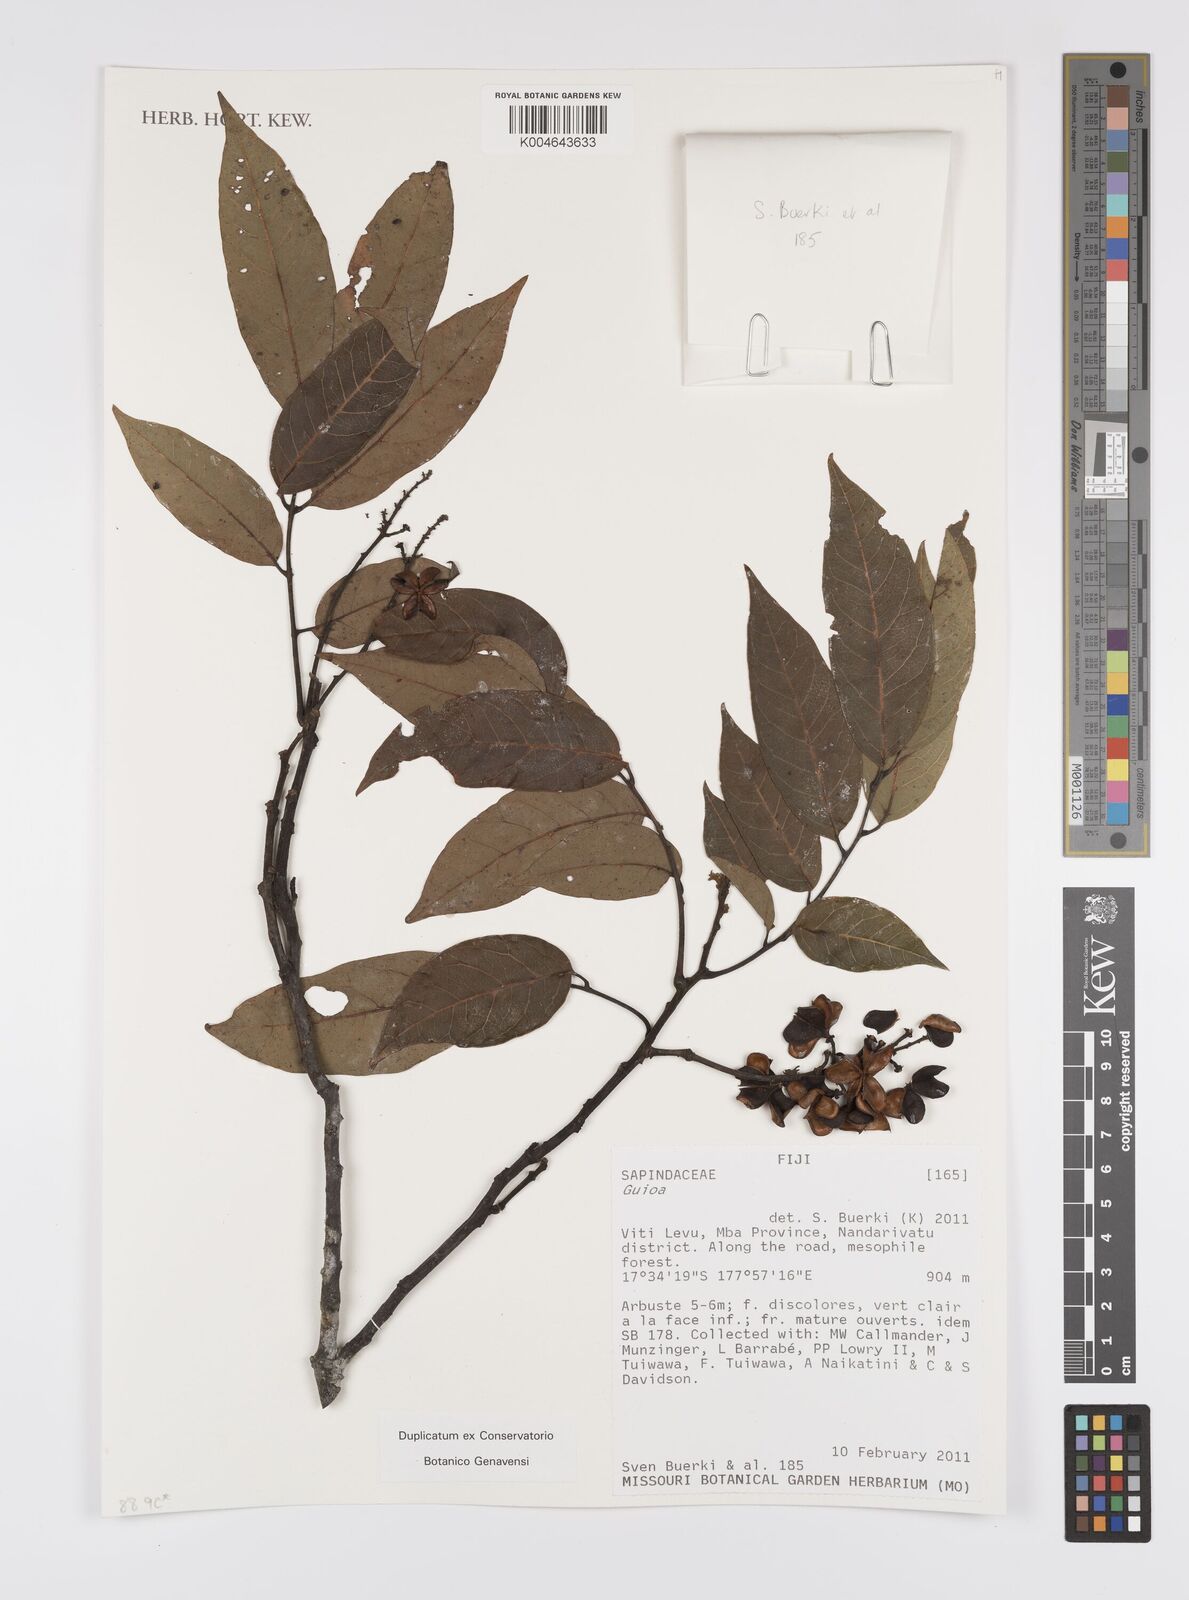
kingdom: Plantae
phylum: Tracheophyta
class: Magnoliopsida
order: Sapindales
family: Sapindaceae
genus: Guioa
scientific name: Guioa
